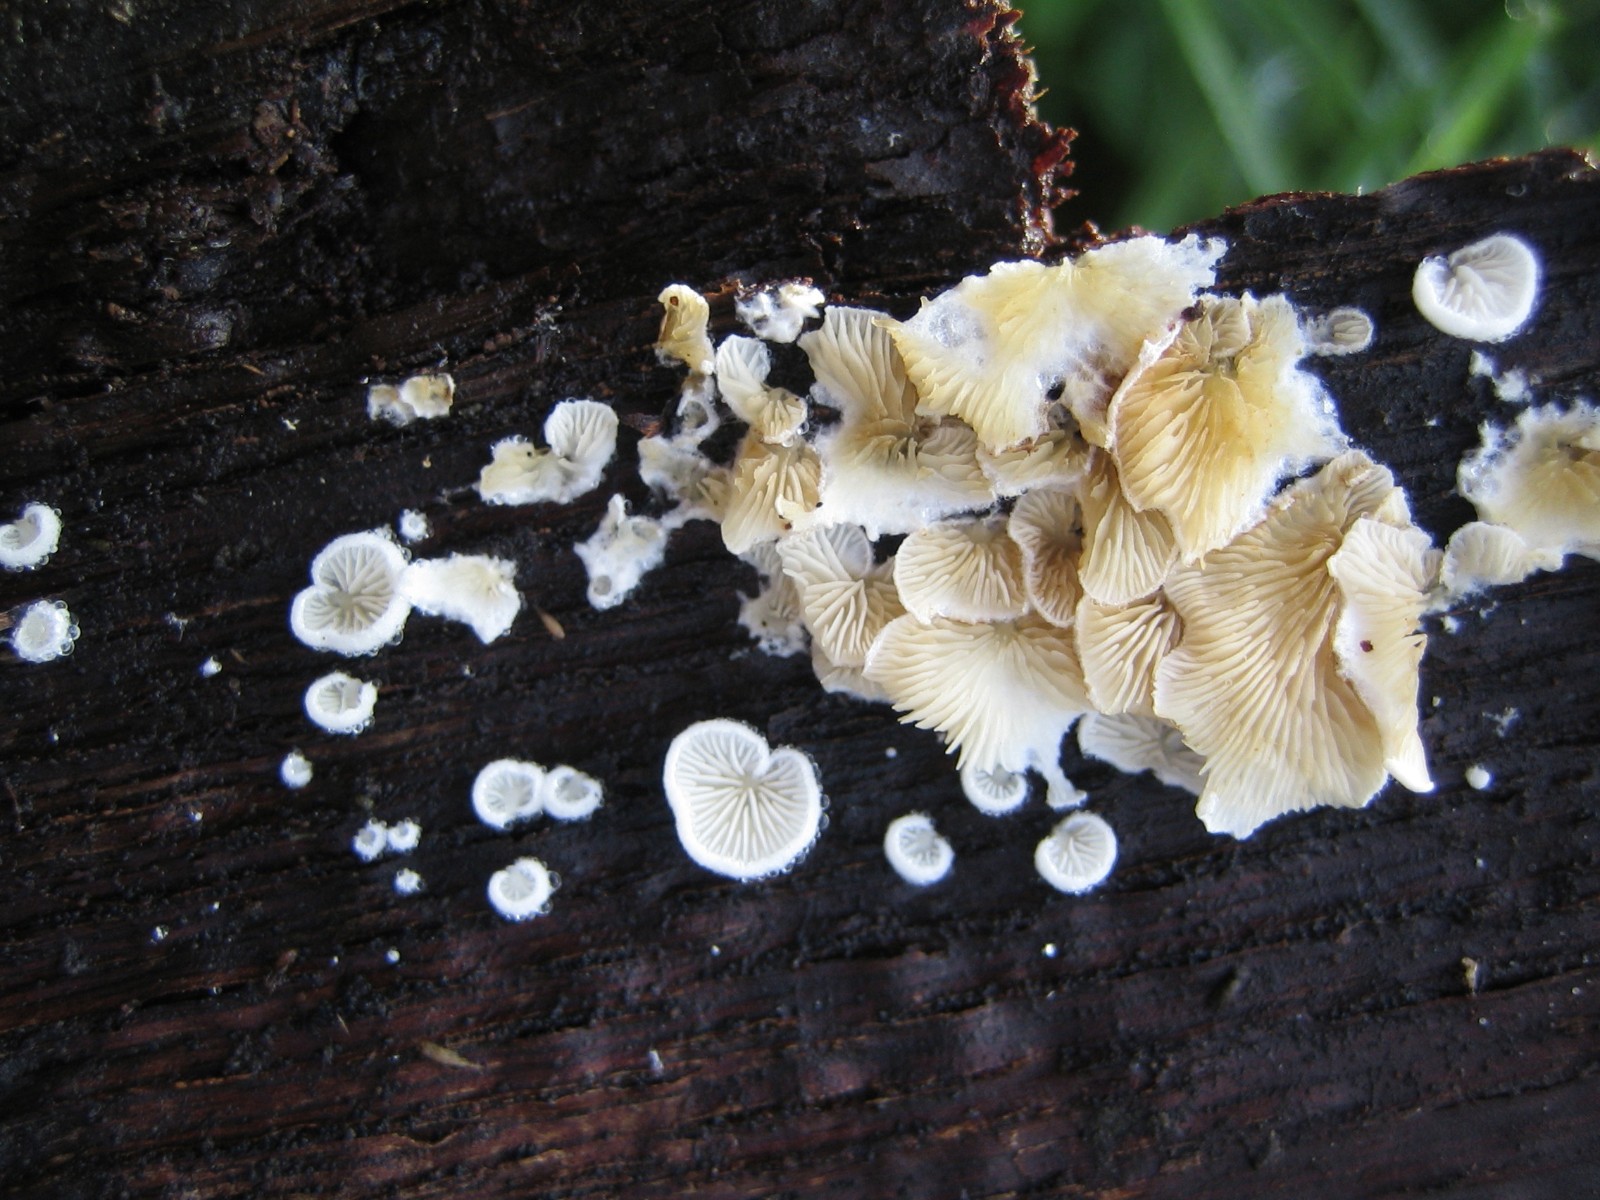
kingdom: Fungi
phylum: Basidiomycota
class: Agaricomycetes
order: Agaricales
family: Crepidotaceae
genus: Crepidotus
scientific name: Crepidotus
